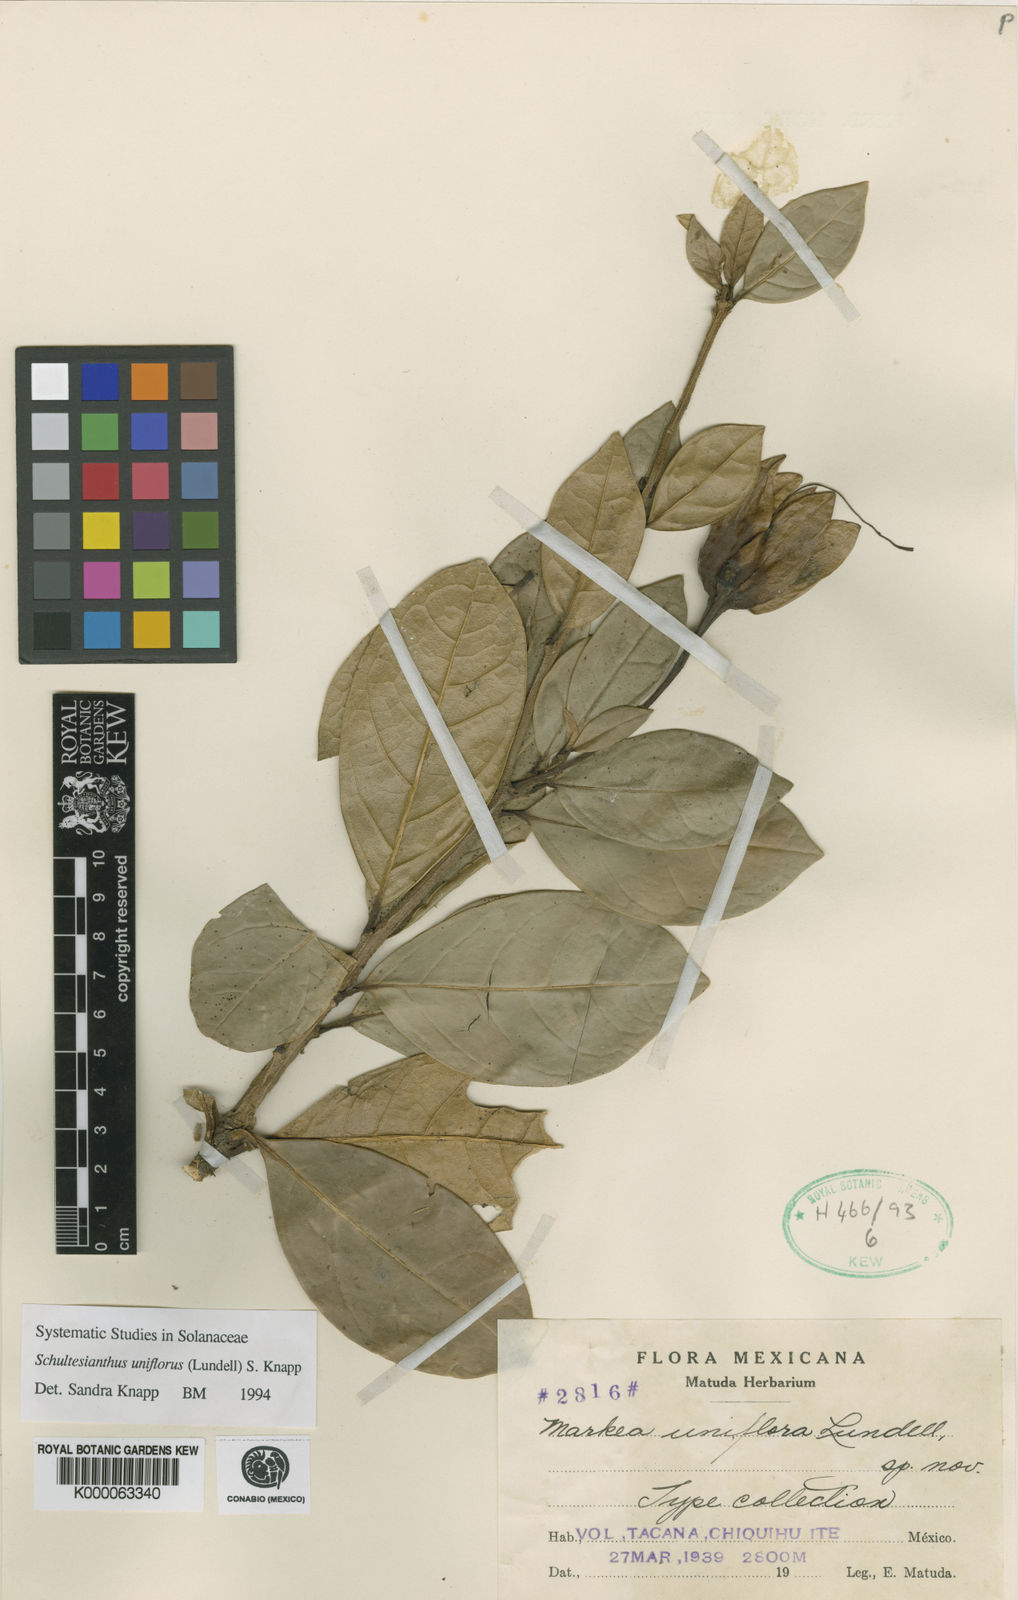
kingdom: Plantae
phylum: Tracheophyta
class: Magnoliopsida
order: Solanales
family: Solanaceae
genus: Schultesianthus
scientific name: Schultesianthus uniflorus
